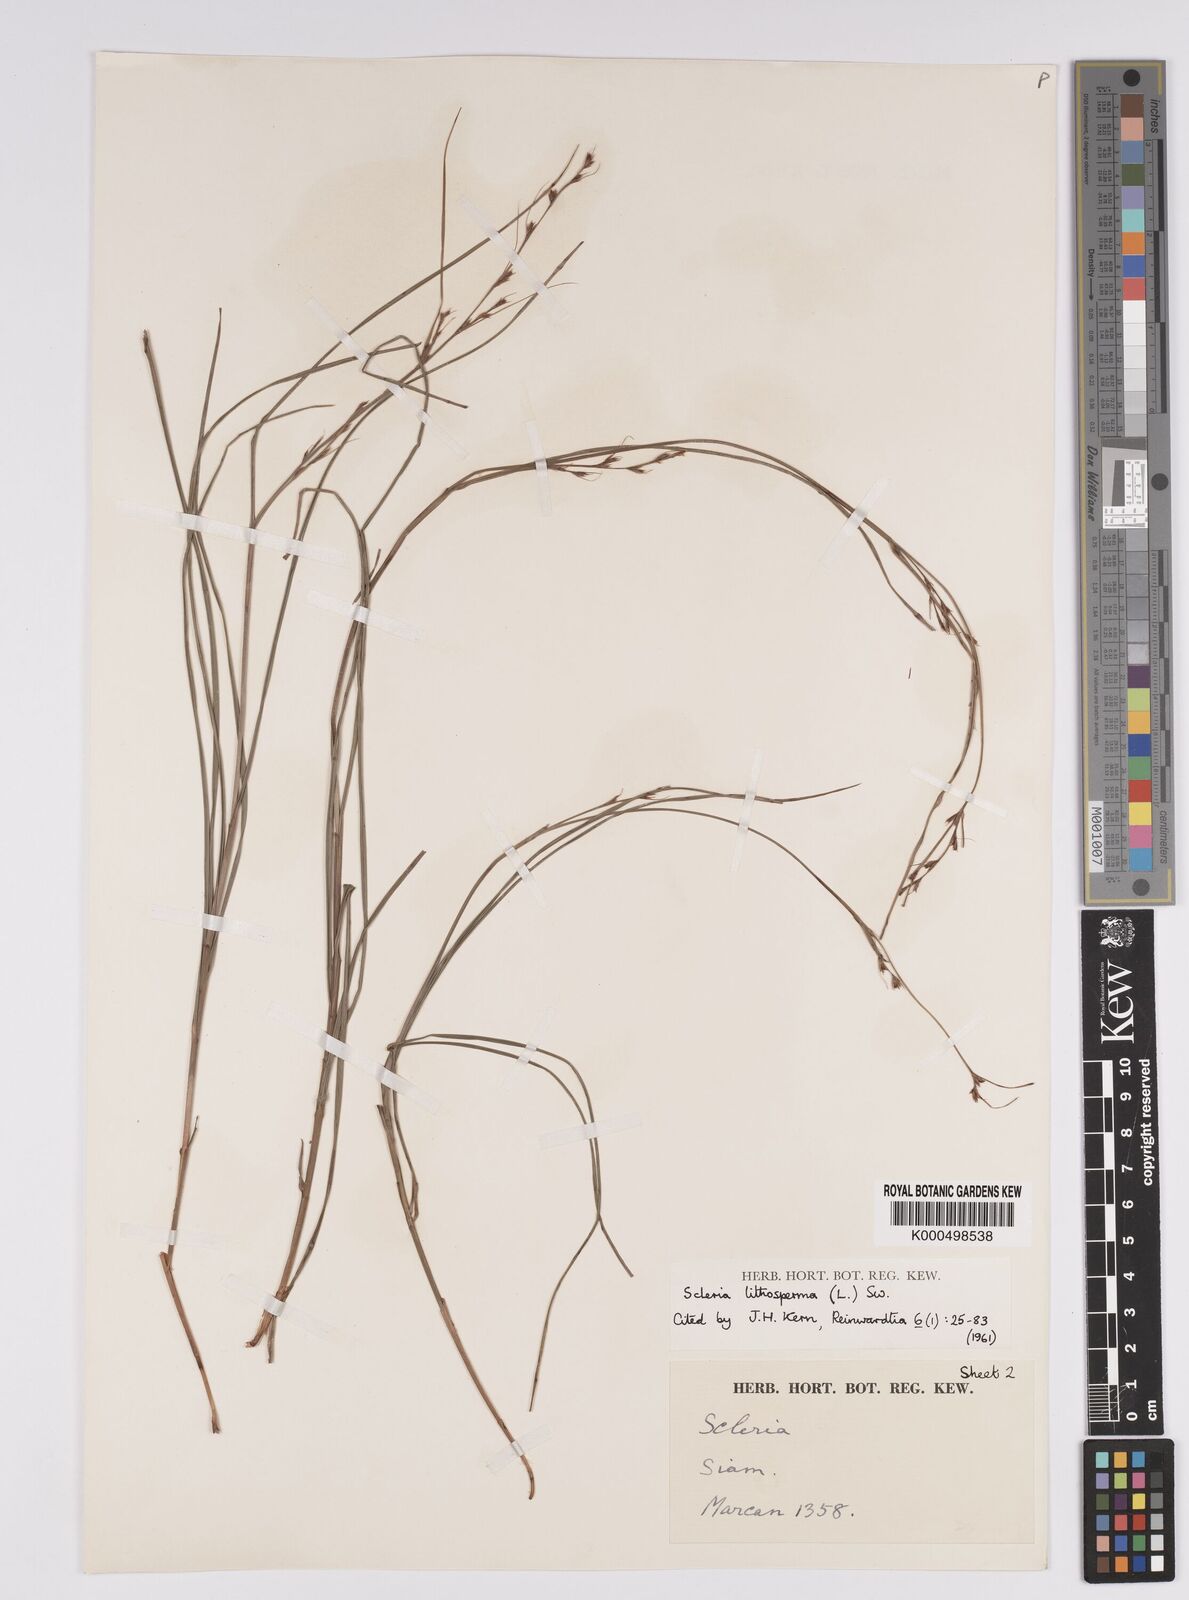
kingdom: Plantae
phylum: Tracheophyta
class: Liliopsida
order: Poales
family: Cyperaceae
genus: Scleria
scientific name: Scleria lithosperma
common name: Florida keys nut-rush
